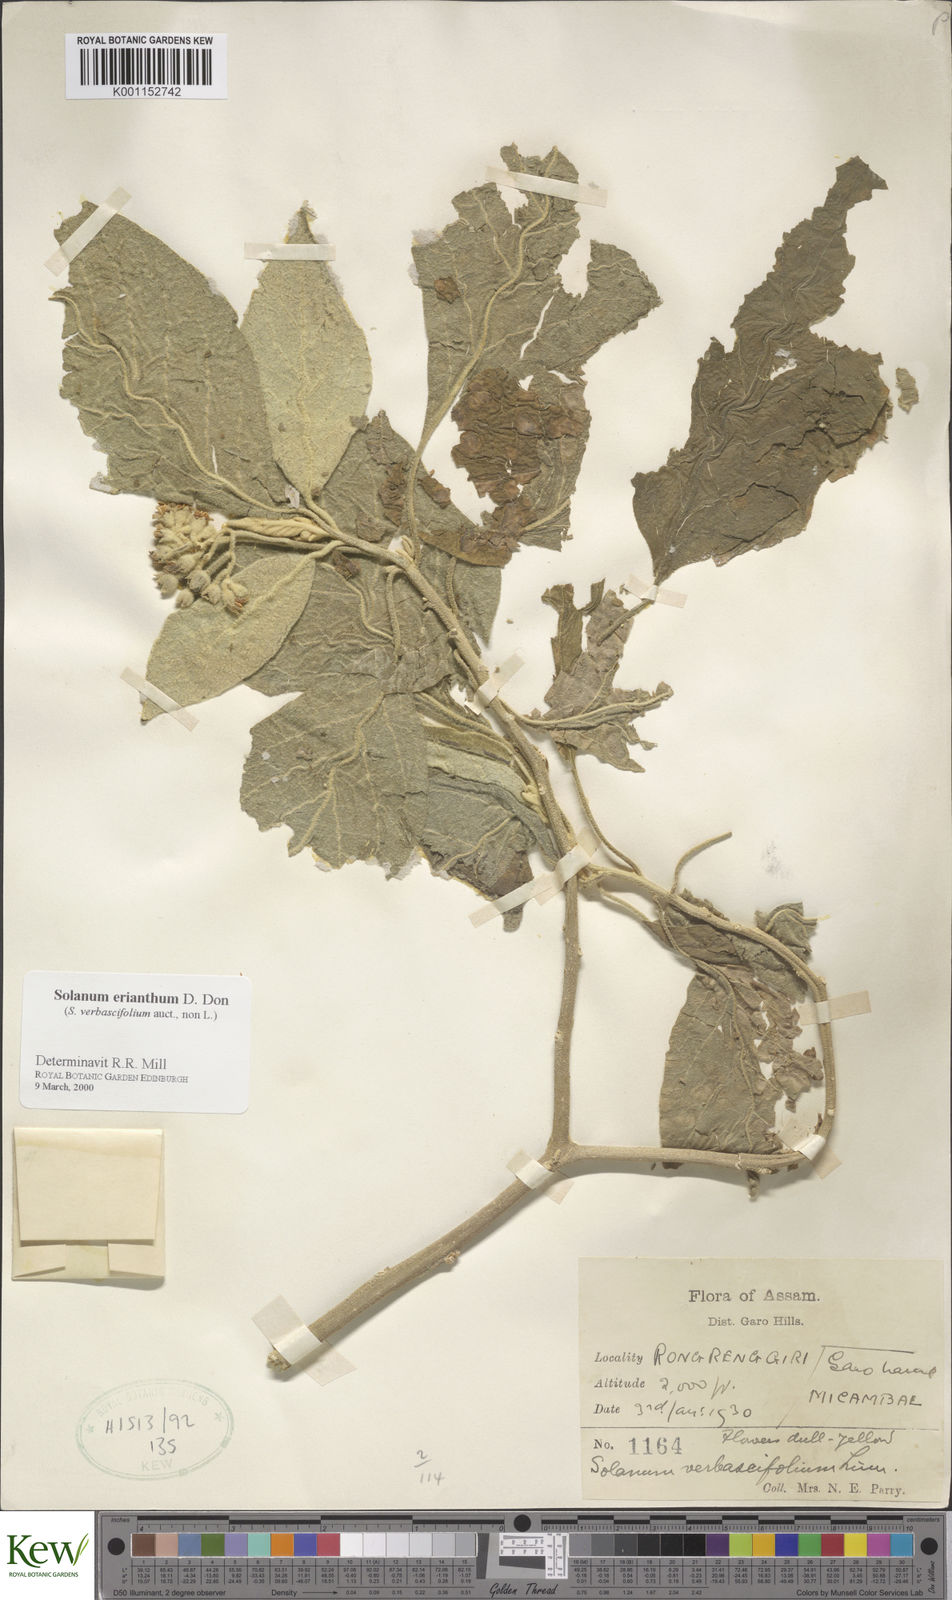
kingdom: Plantae
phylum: Tracheophyta
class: Magnoliopsida
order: Solanales
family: Solanaceae
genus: Solanum
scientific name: Solanum erianthum
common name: Tobacco-tree
